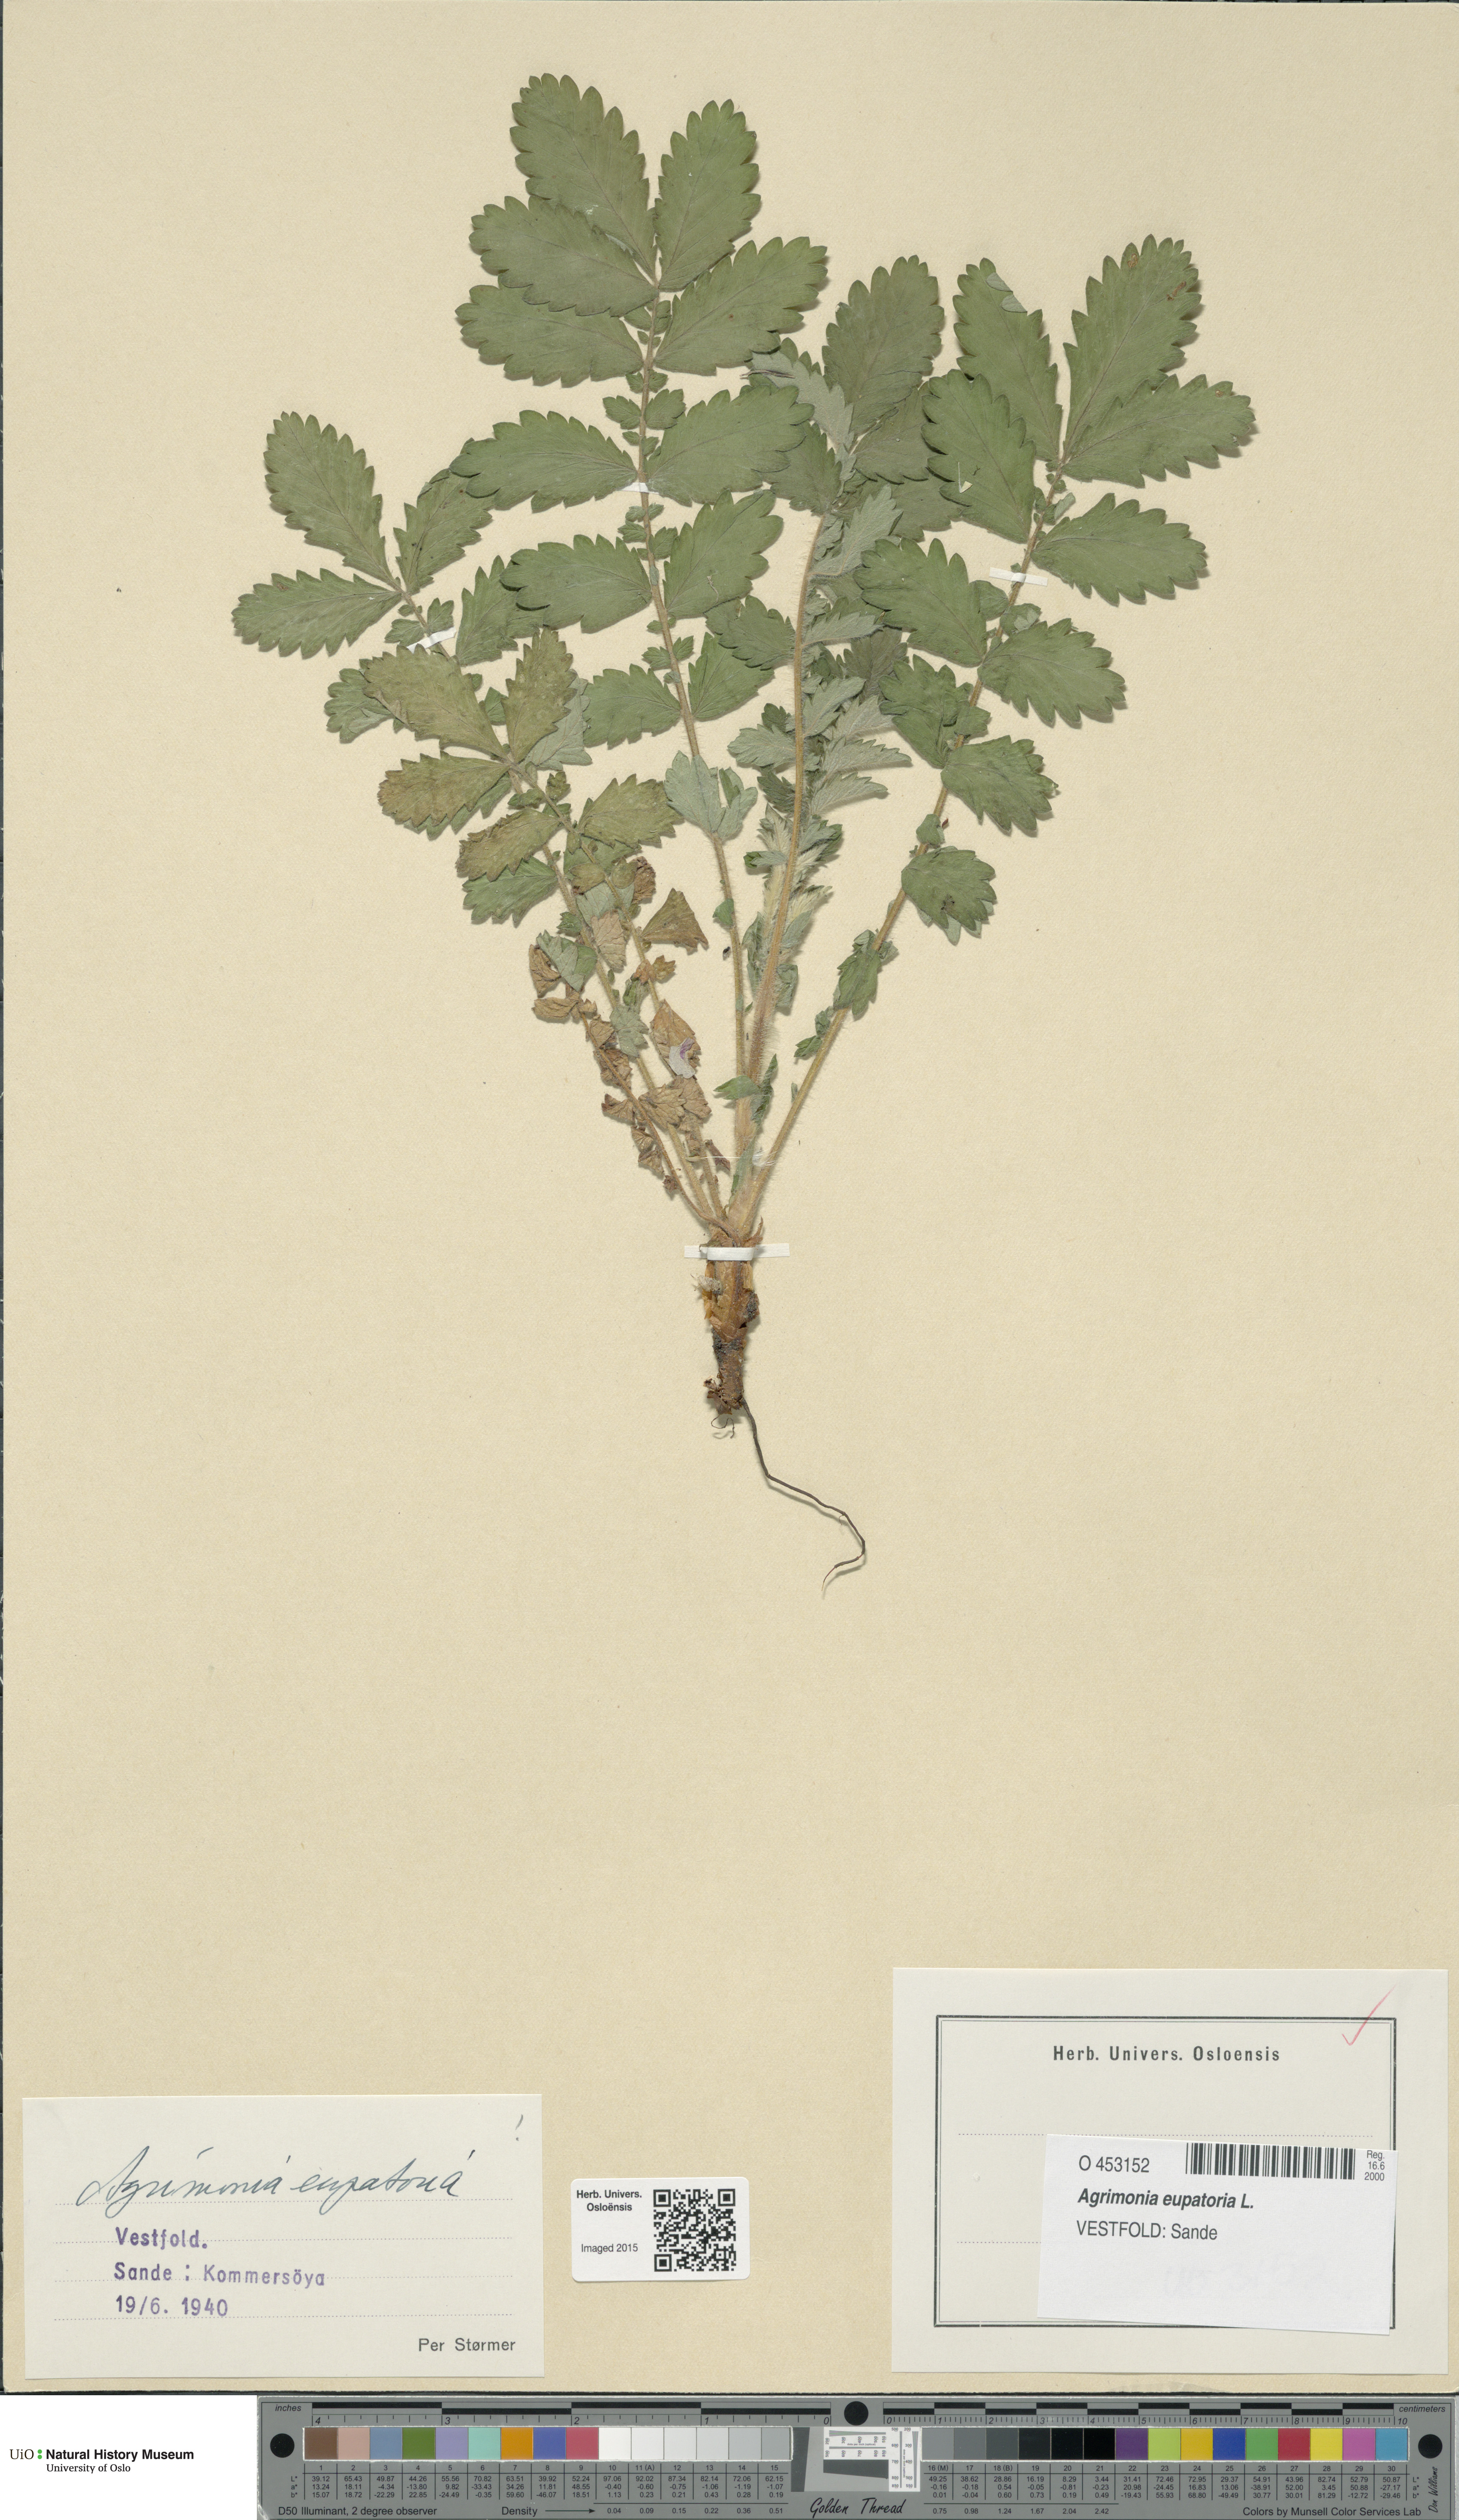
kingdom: Plantae
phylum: Tracheophyta
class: Magnoliopsida
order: Rosales
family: Rosaceae
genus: Agrimonia
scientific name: Agrimonia eupatoria
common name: Agrimony
